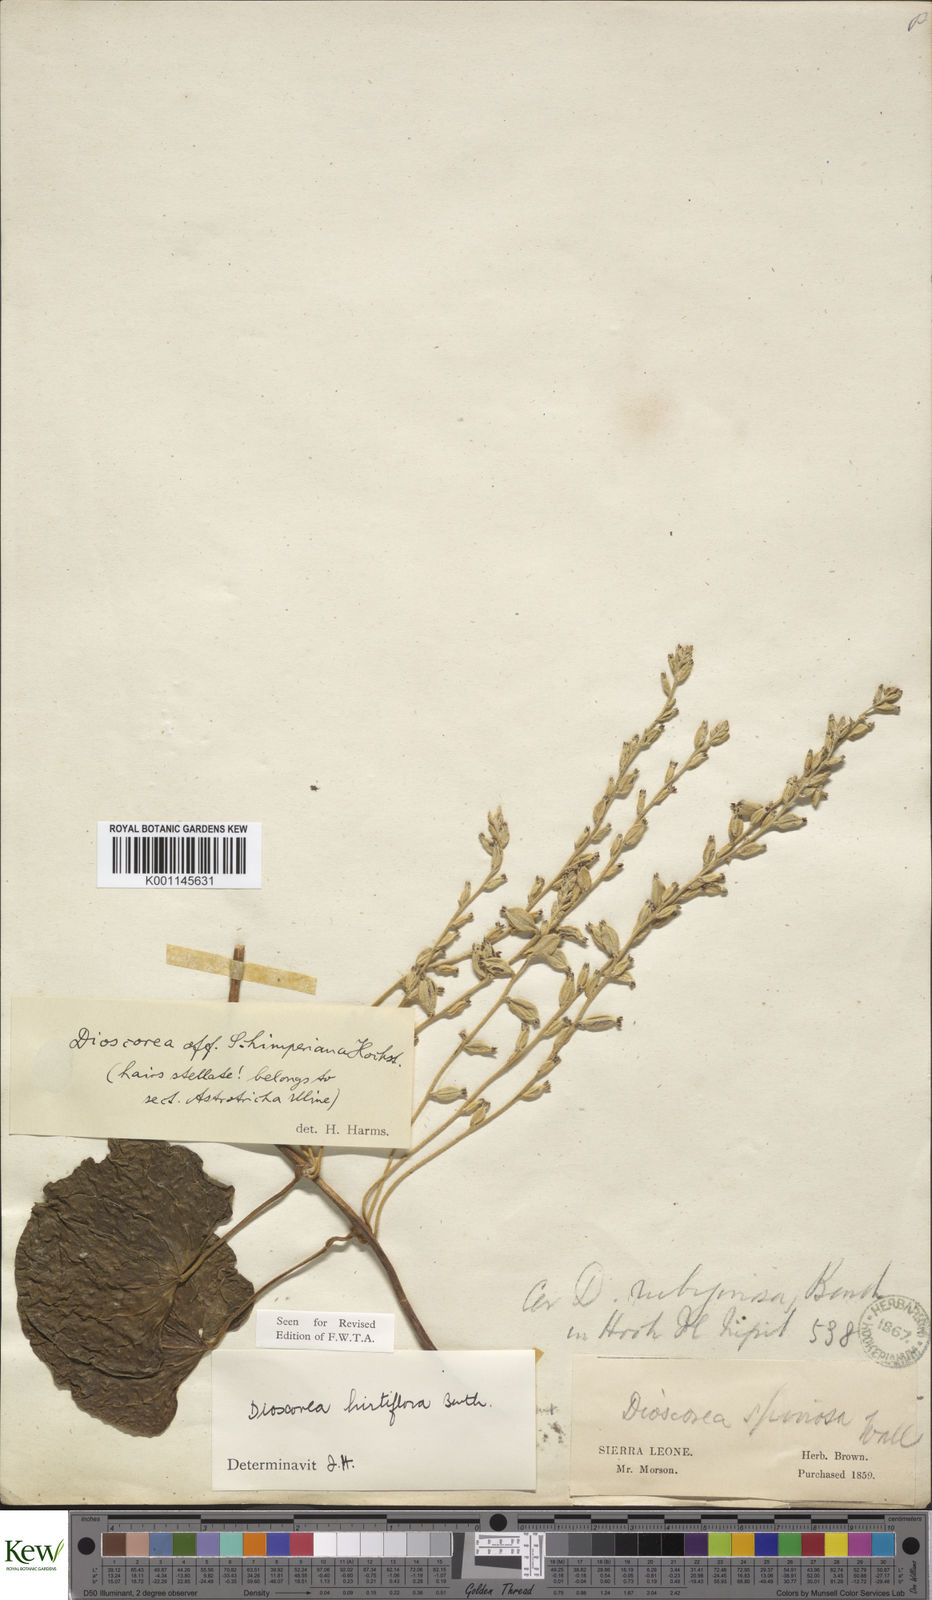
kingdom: Plantae
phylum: Tracheophyta
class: Liliopsida
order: Dioscoreales
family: Dioscoreaceae
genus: Dioscorea
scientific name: Dioscorea hirtiflora
